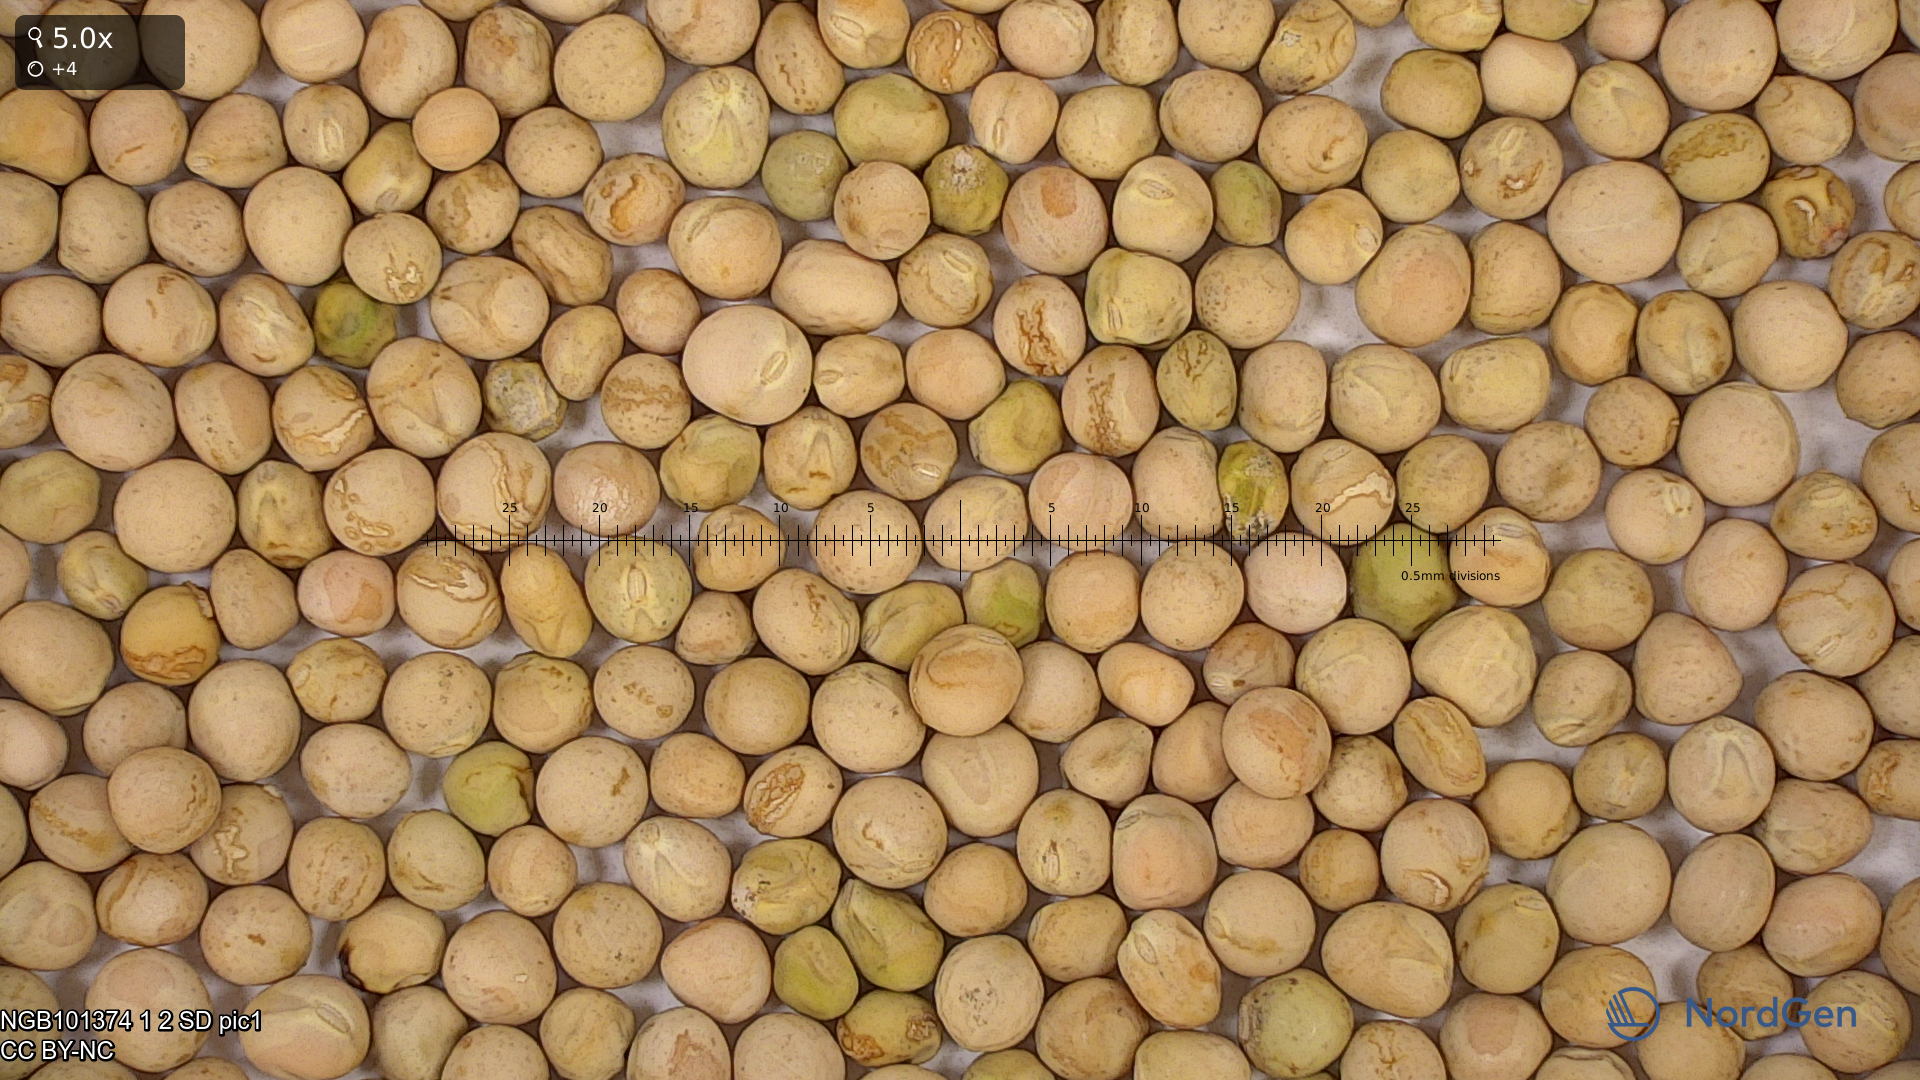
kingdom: Plantae
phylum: Tracheophyta
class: Magnoliopsida
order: Fabales
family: Fabaceae
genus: Lathyrus
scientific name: Lathyrus oleraceus
